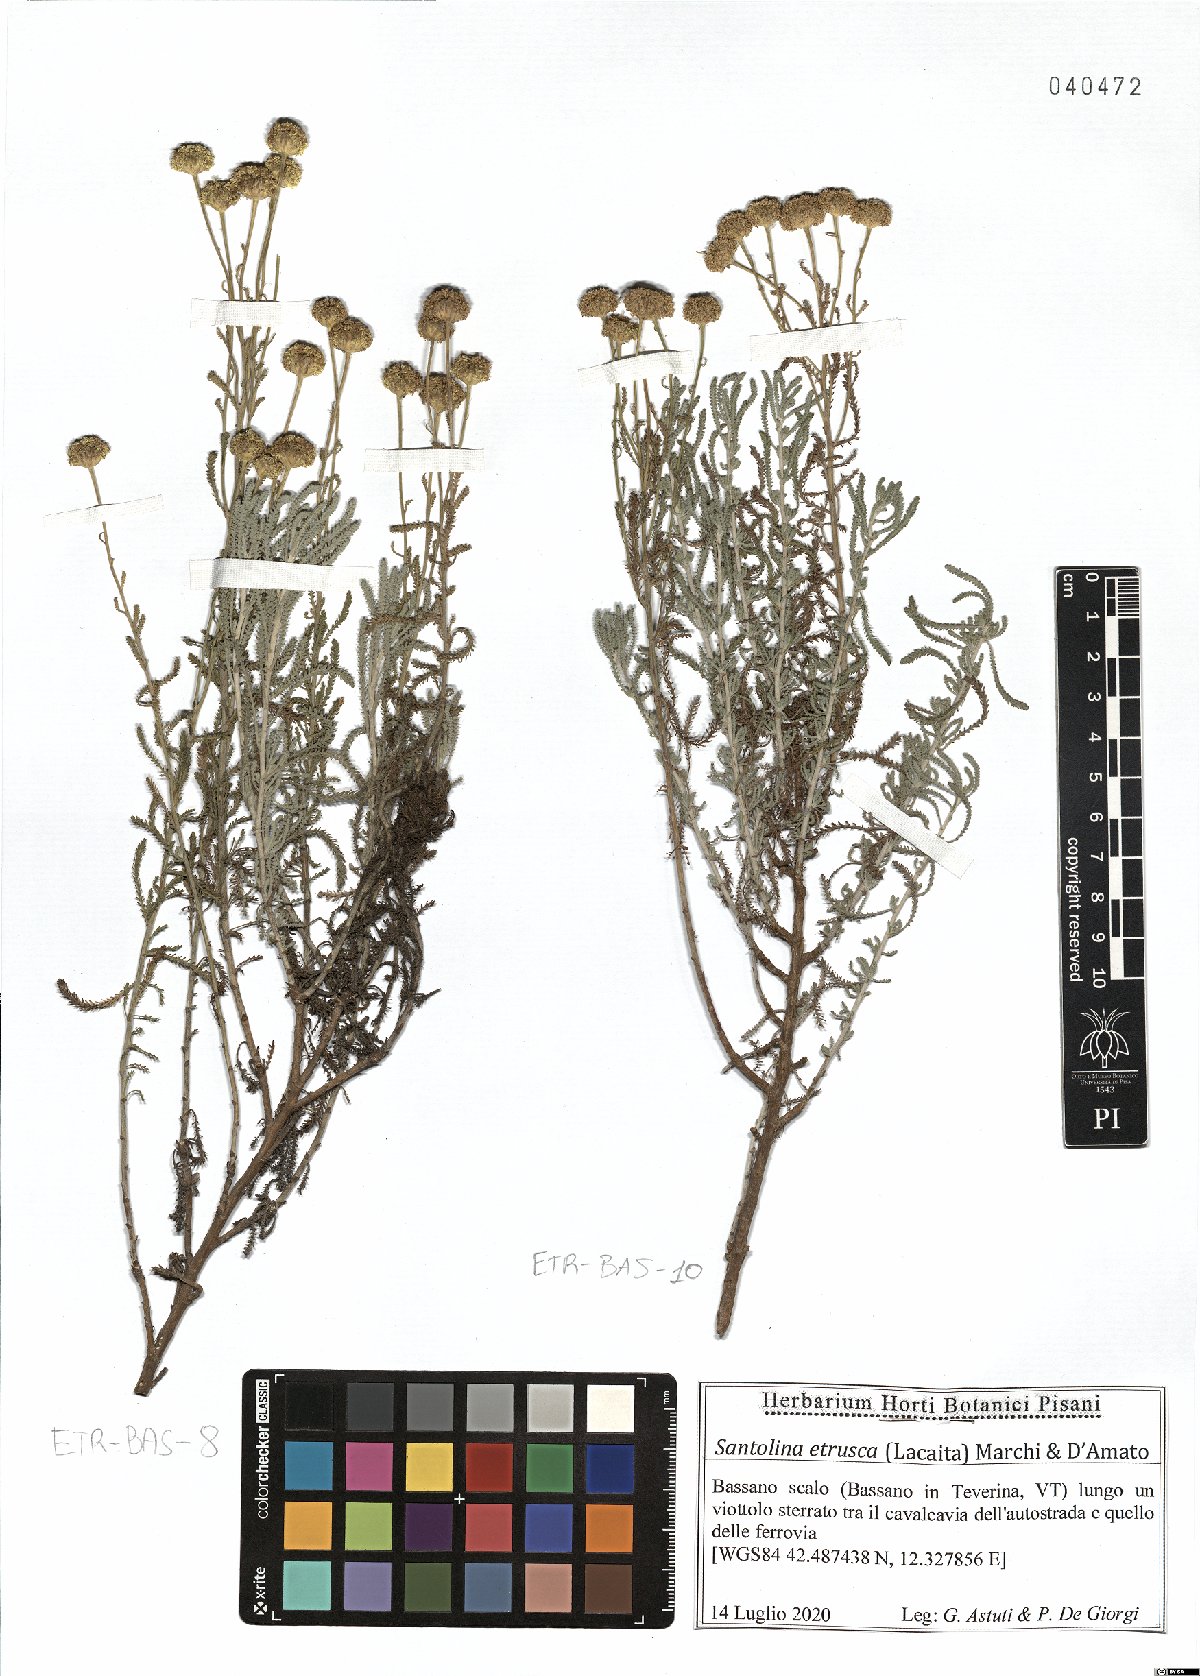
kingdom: Plantae
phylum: Tracheophyta
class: Magnoliopsida
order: Asterales
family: Asteraceae
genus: Santolina
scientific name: Santolina etrusca
